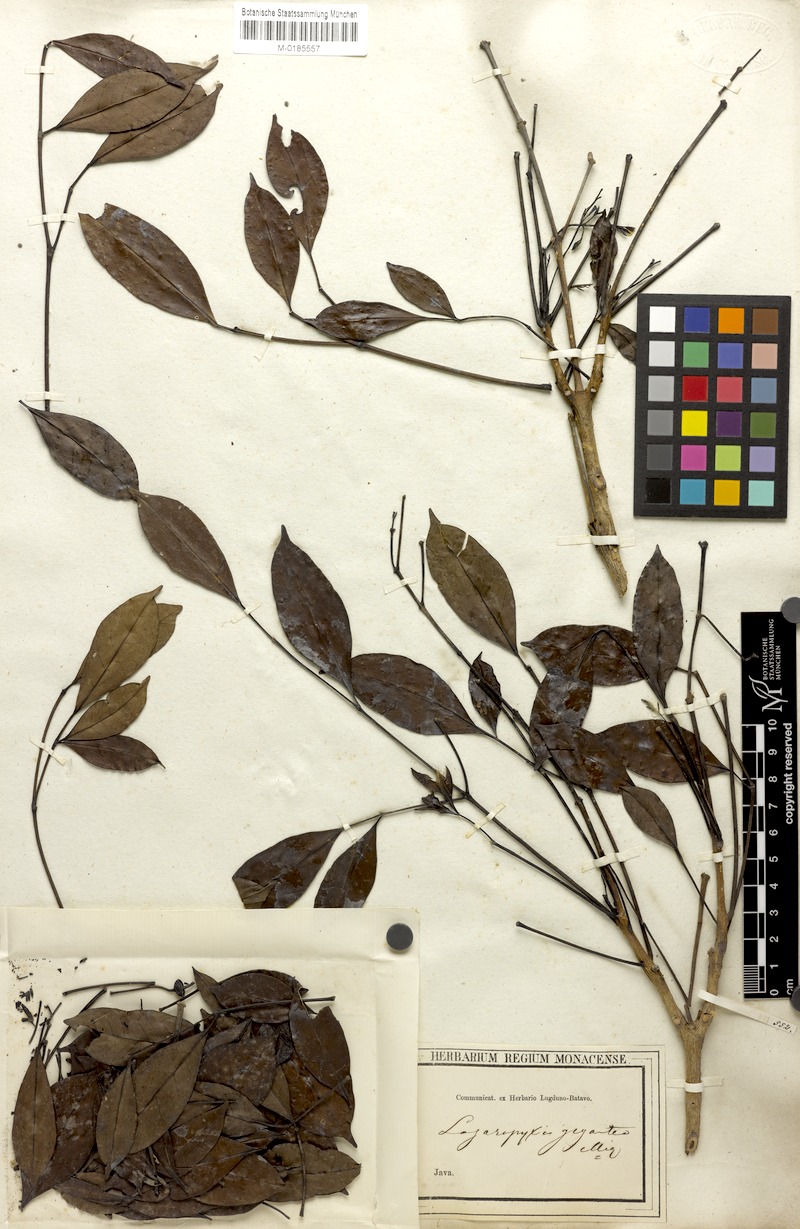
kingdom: Plantae
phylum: Tracheophyta
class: Magnoliopsida
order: Lamiales
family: Bignoniaceae
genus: Radermachera
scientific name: Radermachera gigantea
